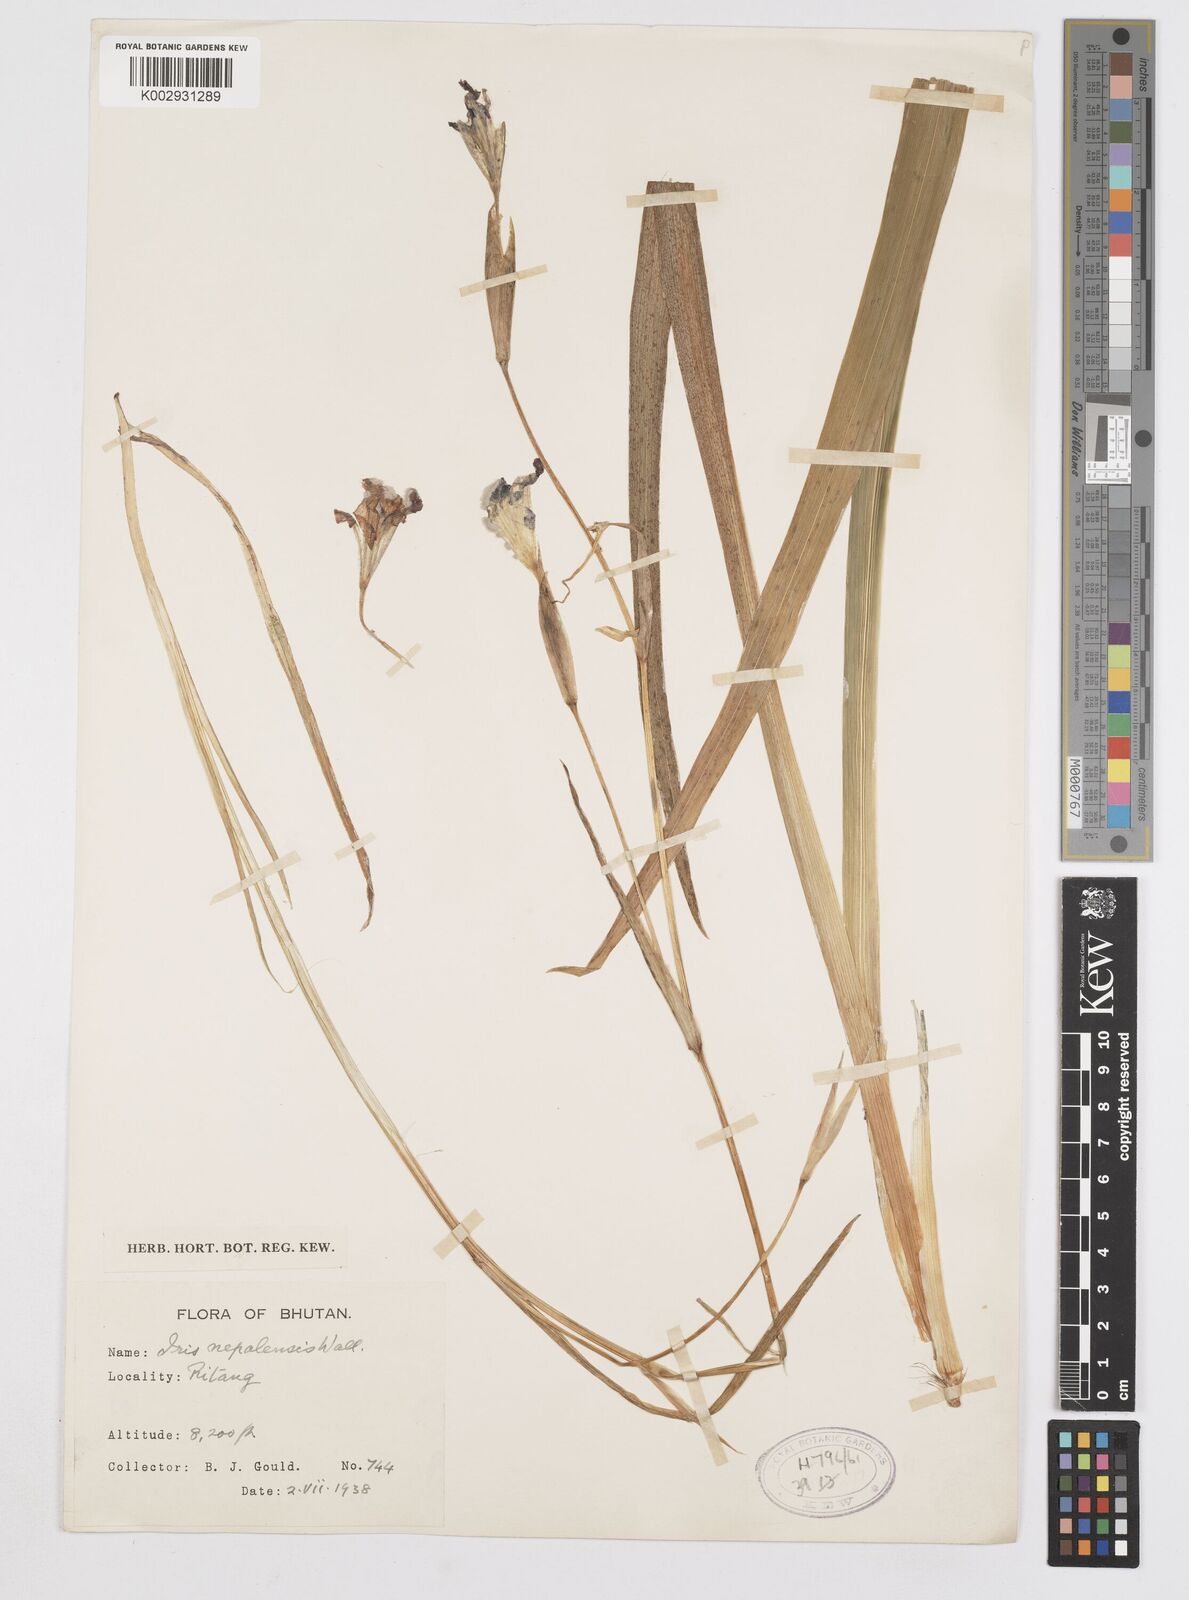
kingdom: Plantae
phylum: Tracheophyta
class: Liliopsida
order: Asparagales
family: Iridaceae
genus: Iris
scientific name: Iris decora
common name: Nepal iris
